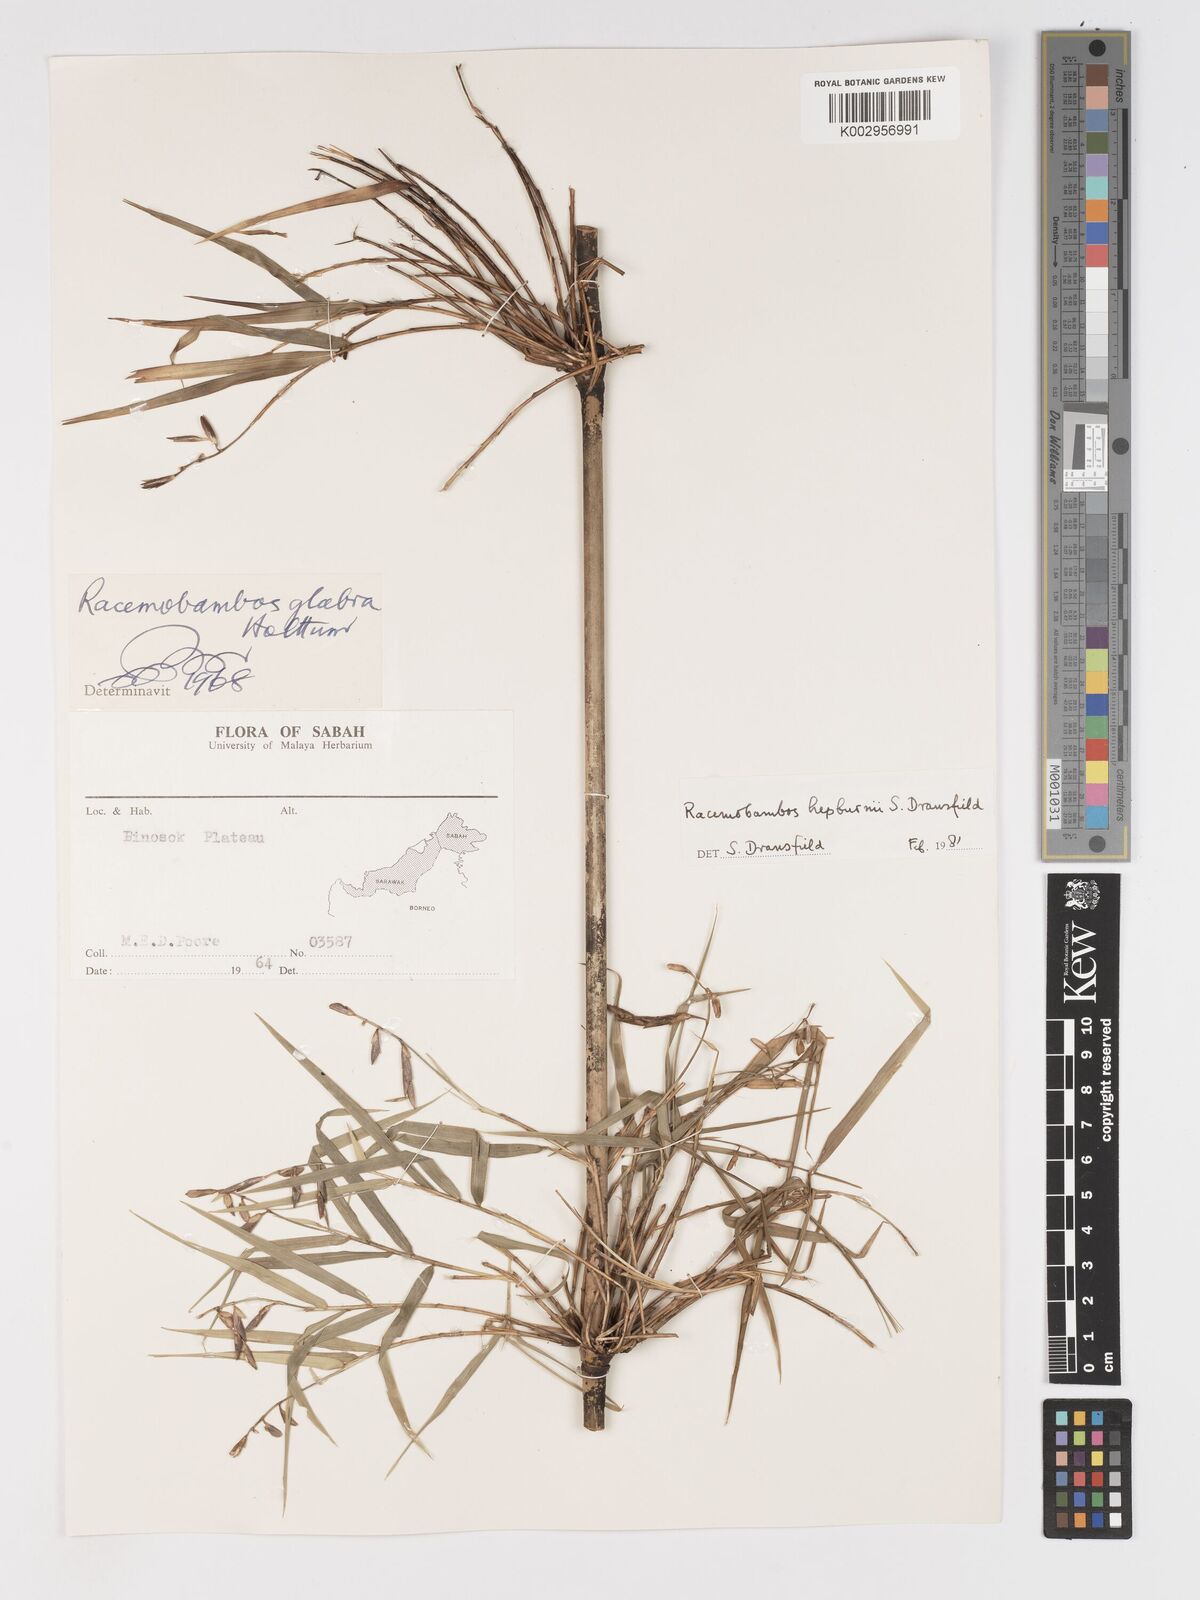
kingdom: Plantae
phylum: Tracheophyta
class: Liliopsida
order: Poales
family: Poaceae
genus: Racemobambos
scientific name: Racemobambos
